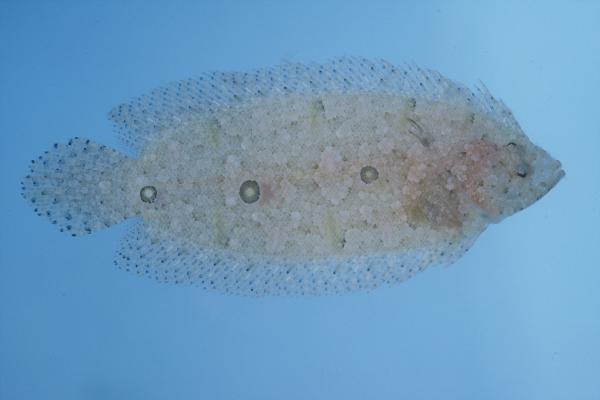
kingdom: Animalia
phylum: Chordata
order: Pleuronectiformes
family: Samaridae
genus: Samariscus
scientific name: Samariscus triocellatus
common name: Three-spot righteye flounder
